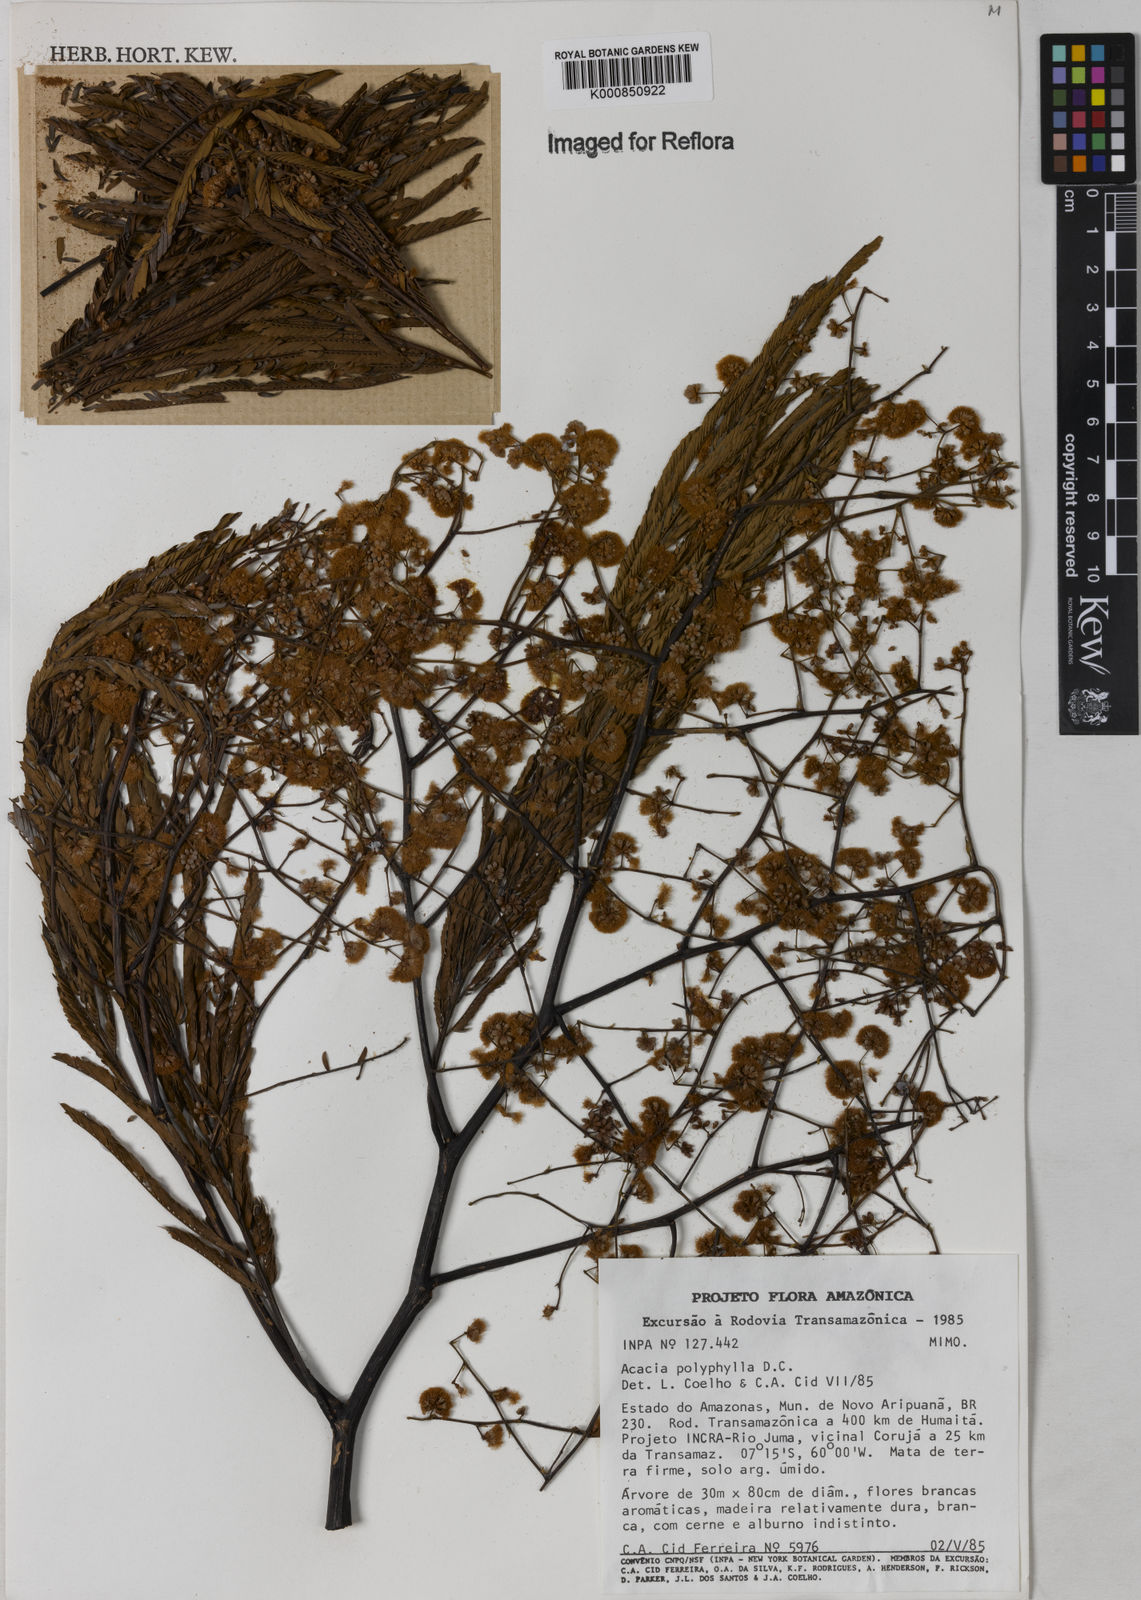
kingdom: Plantae
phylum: Tracheophyta
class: Magnoliopsida
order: Fabales
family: Fabaceae
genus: Senegalia
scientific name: Senegalia polyphylla
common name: White-tamarind
